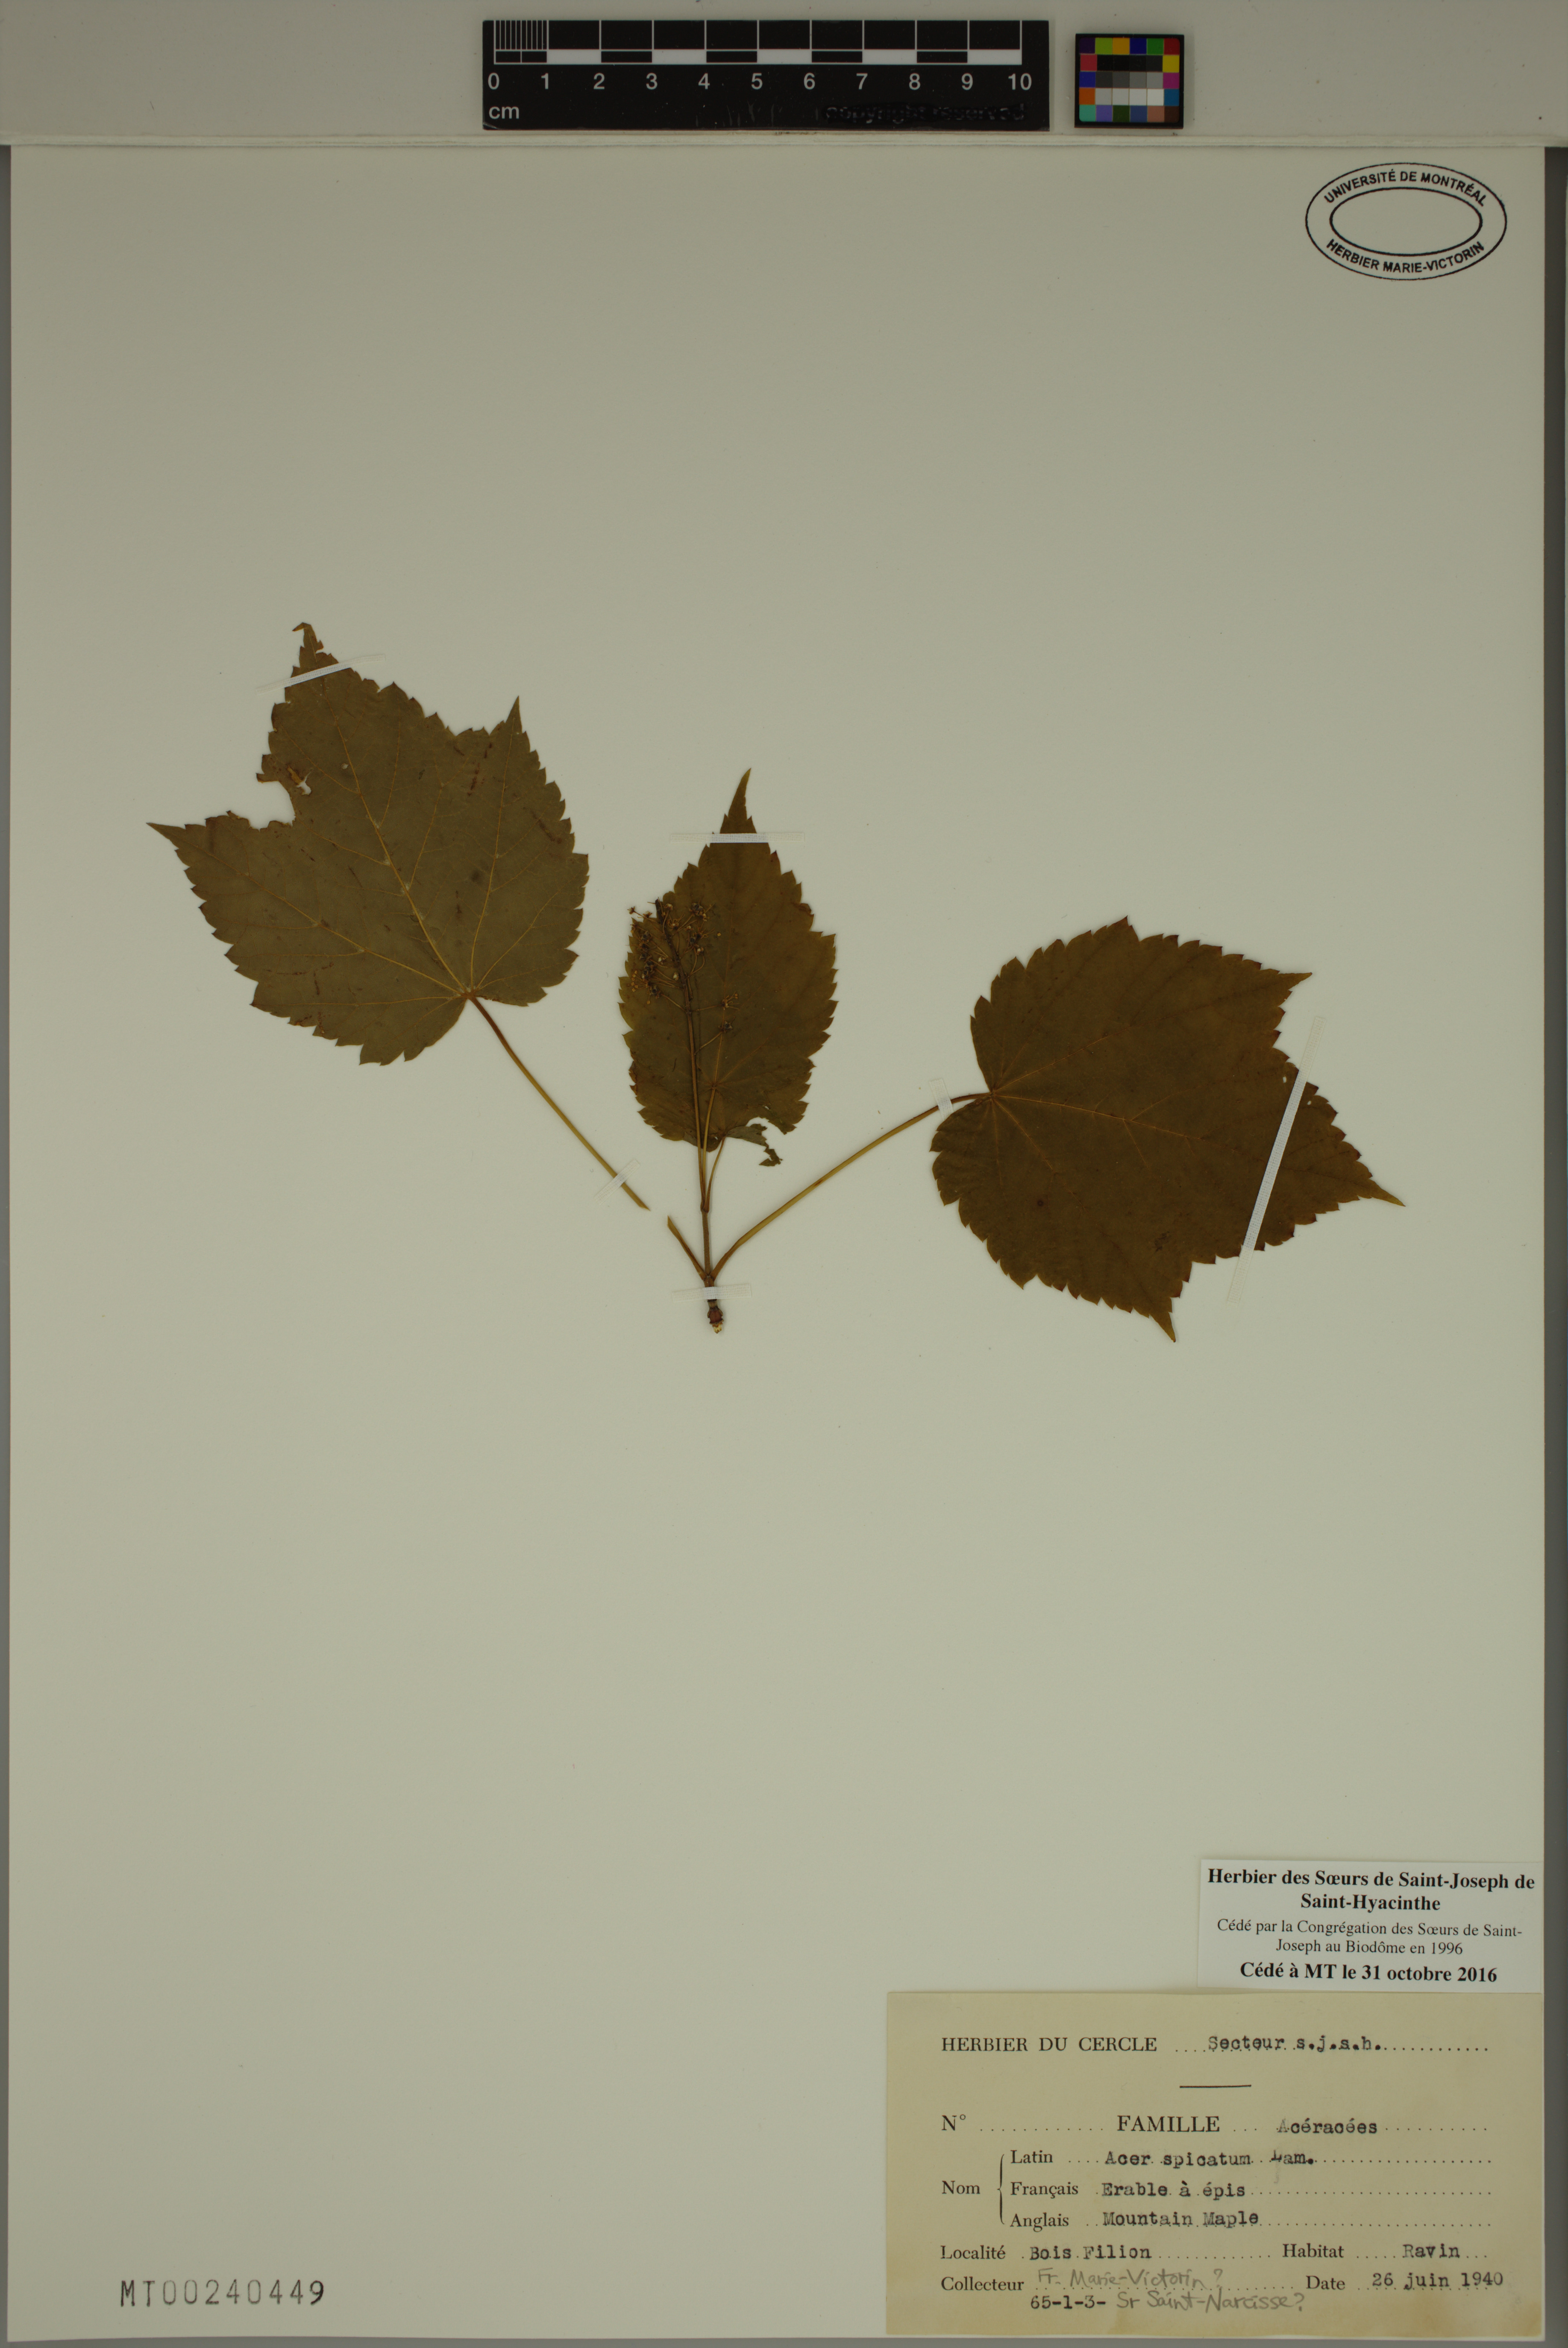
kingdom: Plantae
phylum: Tracheophyta
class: Magnoliopsida
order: Sapindales
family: Sapindaceae
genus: Acer
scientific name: Acer spicatum
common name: Mountain maple
